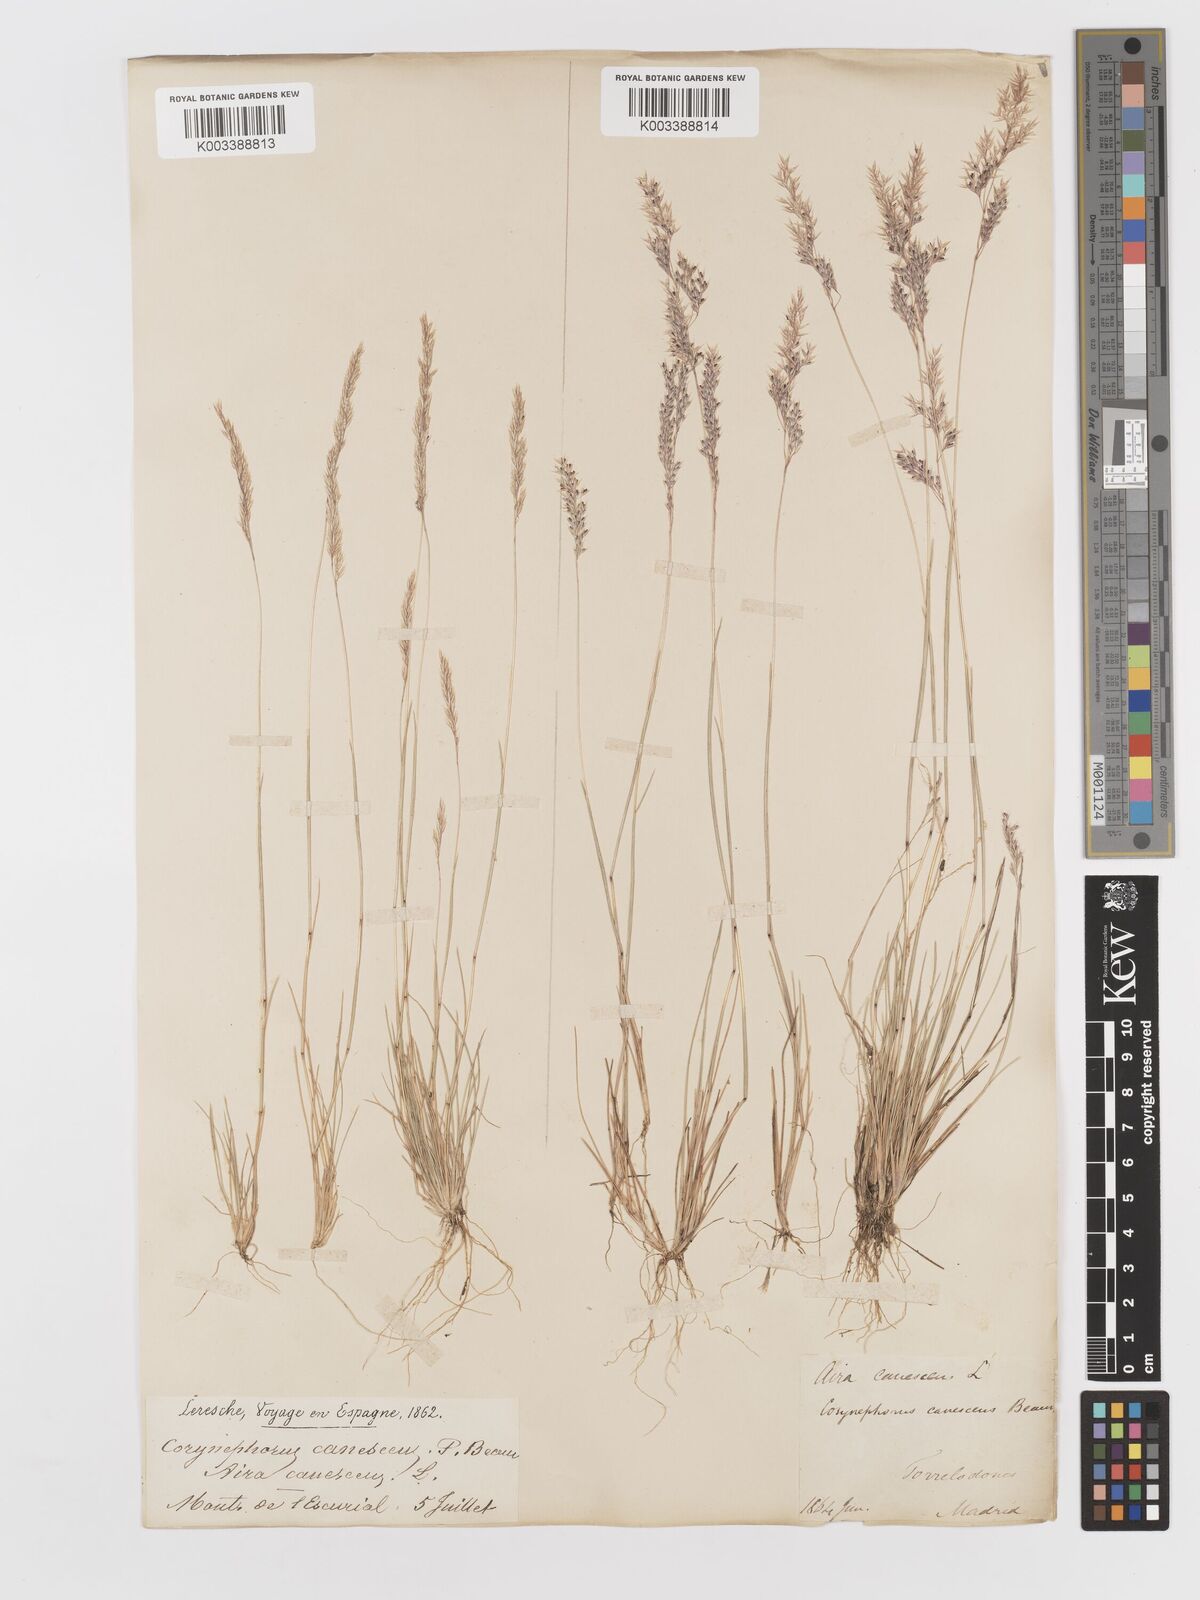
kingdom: Plantae
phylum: Tracheophyta
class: Liliopsida
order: Poales
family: Poaceae
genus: Corynephorus
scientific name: Corynephorus canescens
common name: Grey hair-grass
